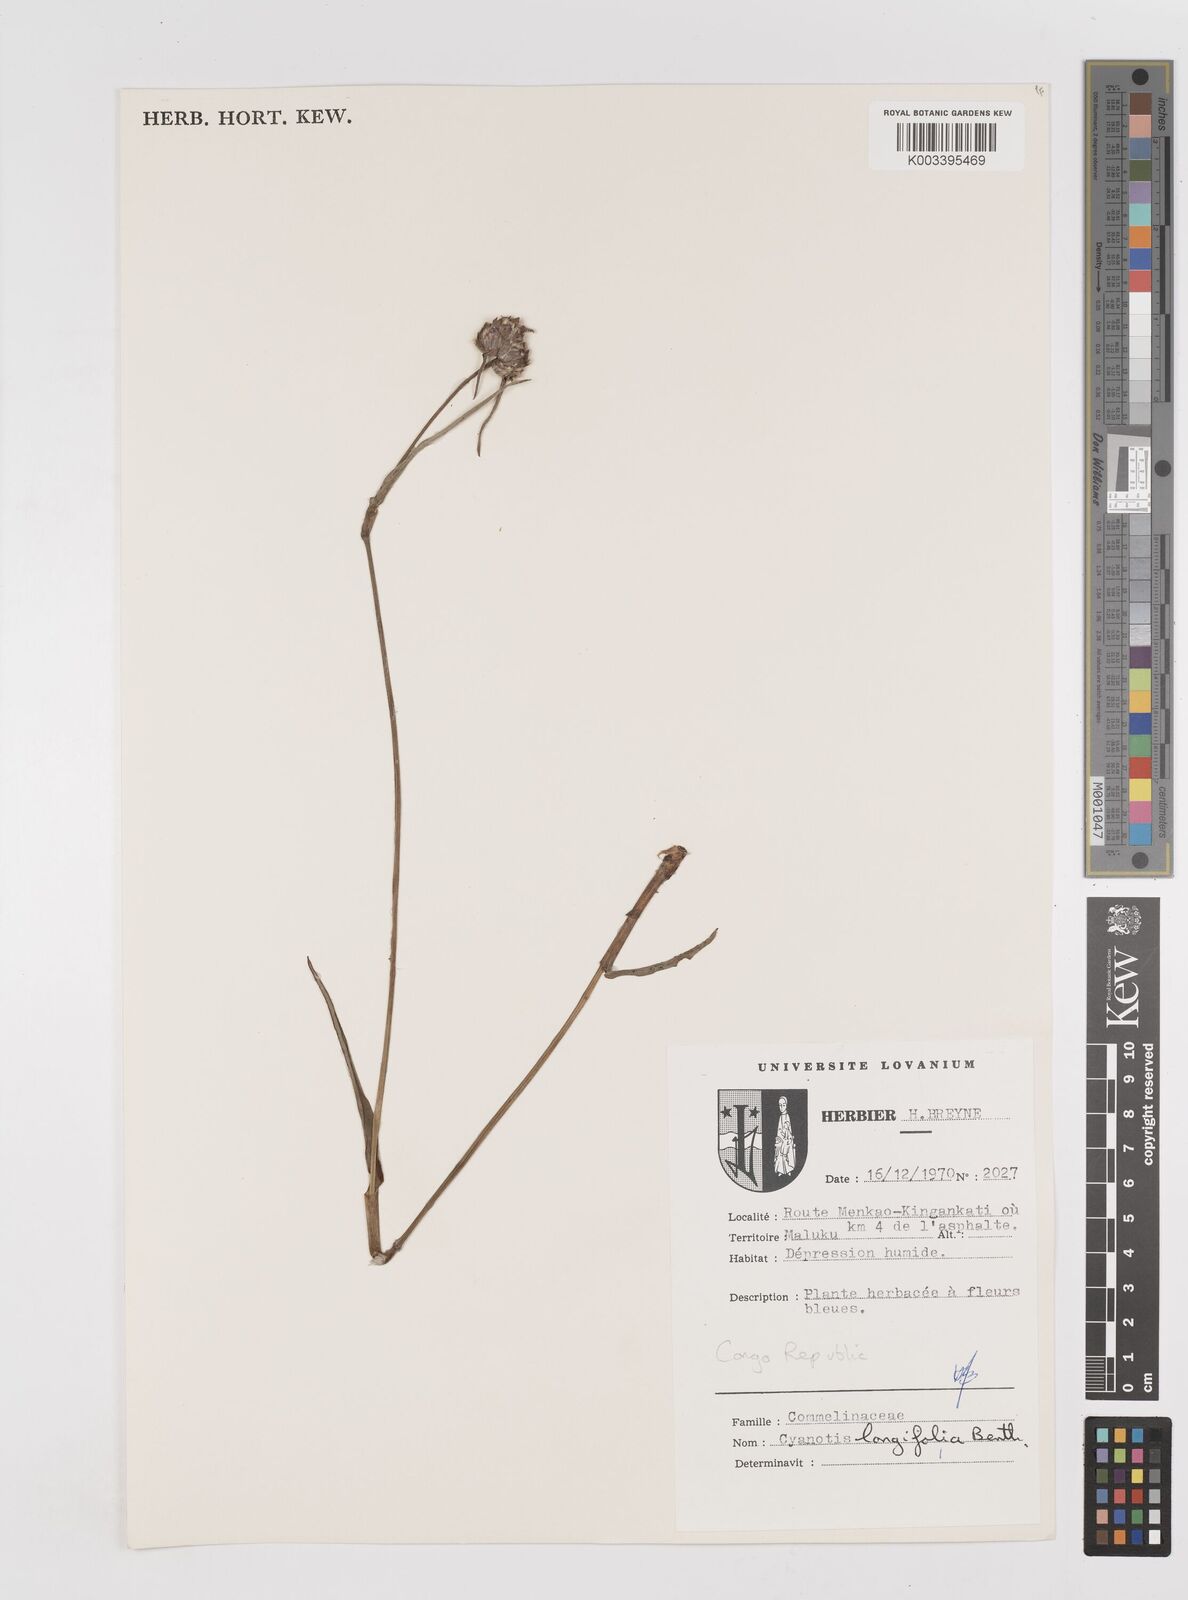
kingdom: Plantae
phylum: Tracheophyta
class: Liliopsida
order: Commelinales
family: Commelinaceae
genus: Cyanotis
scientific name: Cyanotis longifolia
